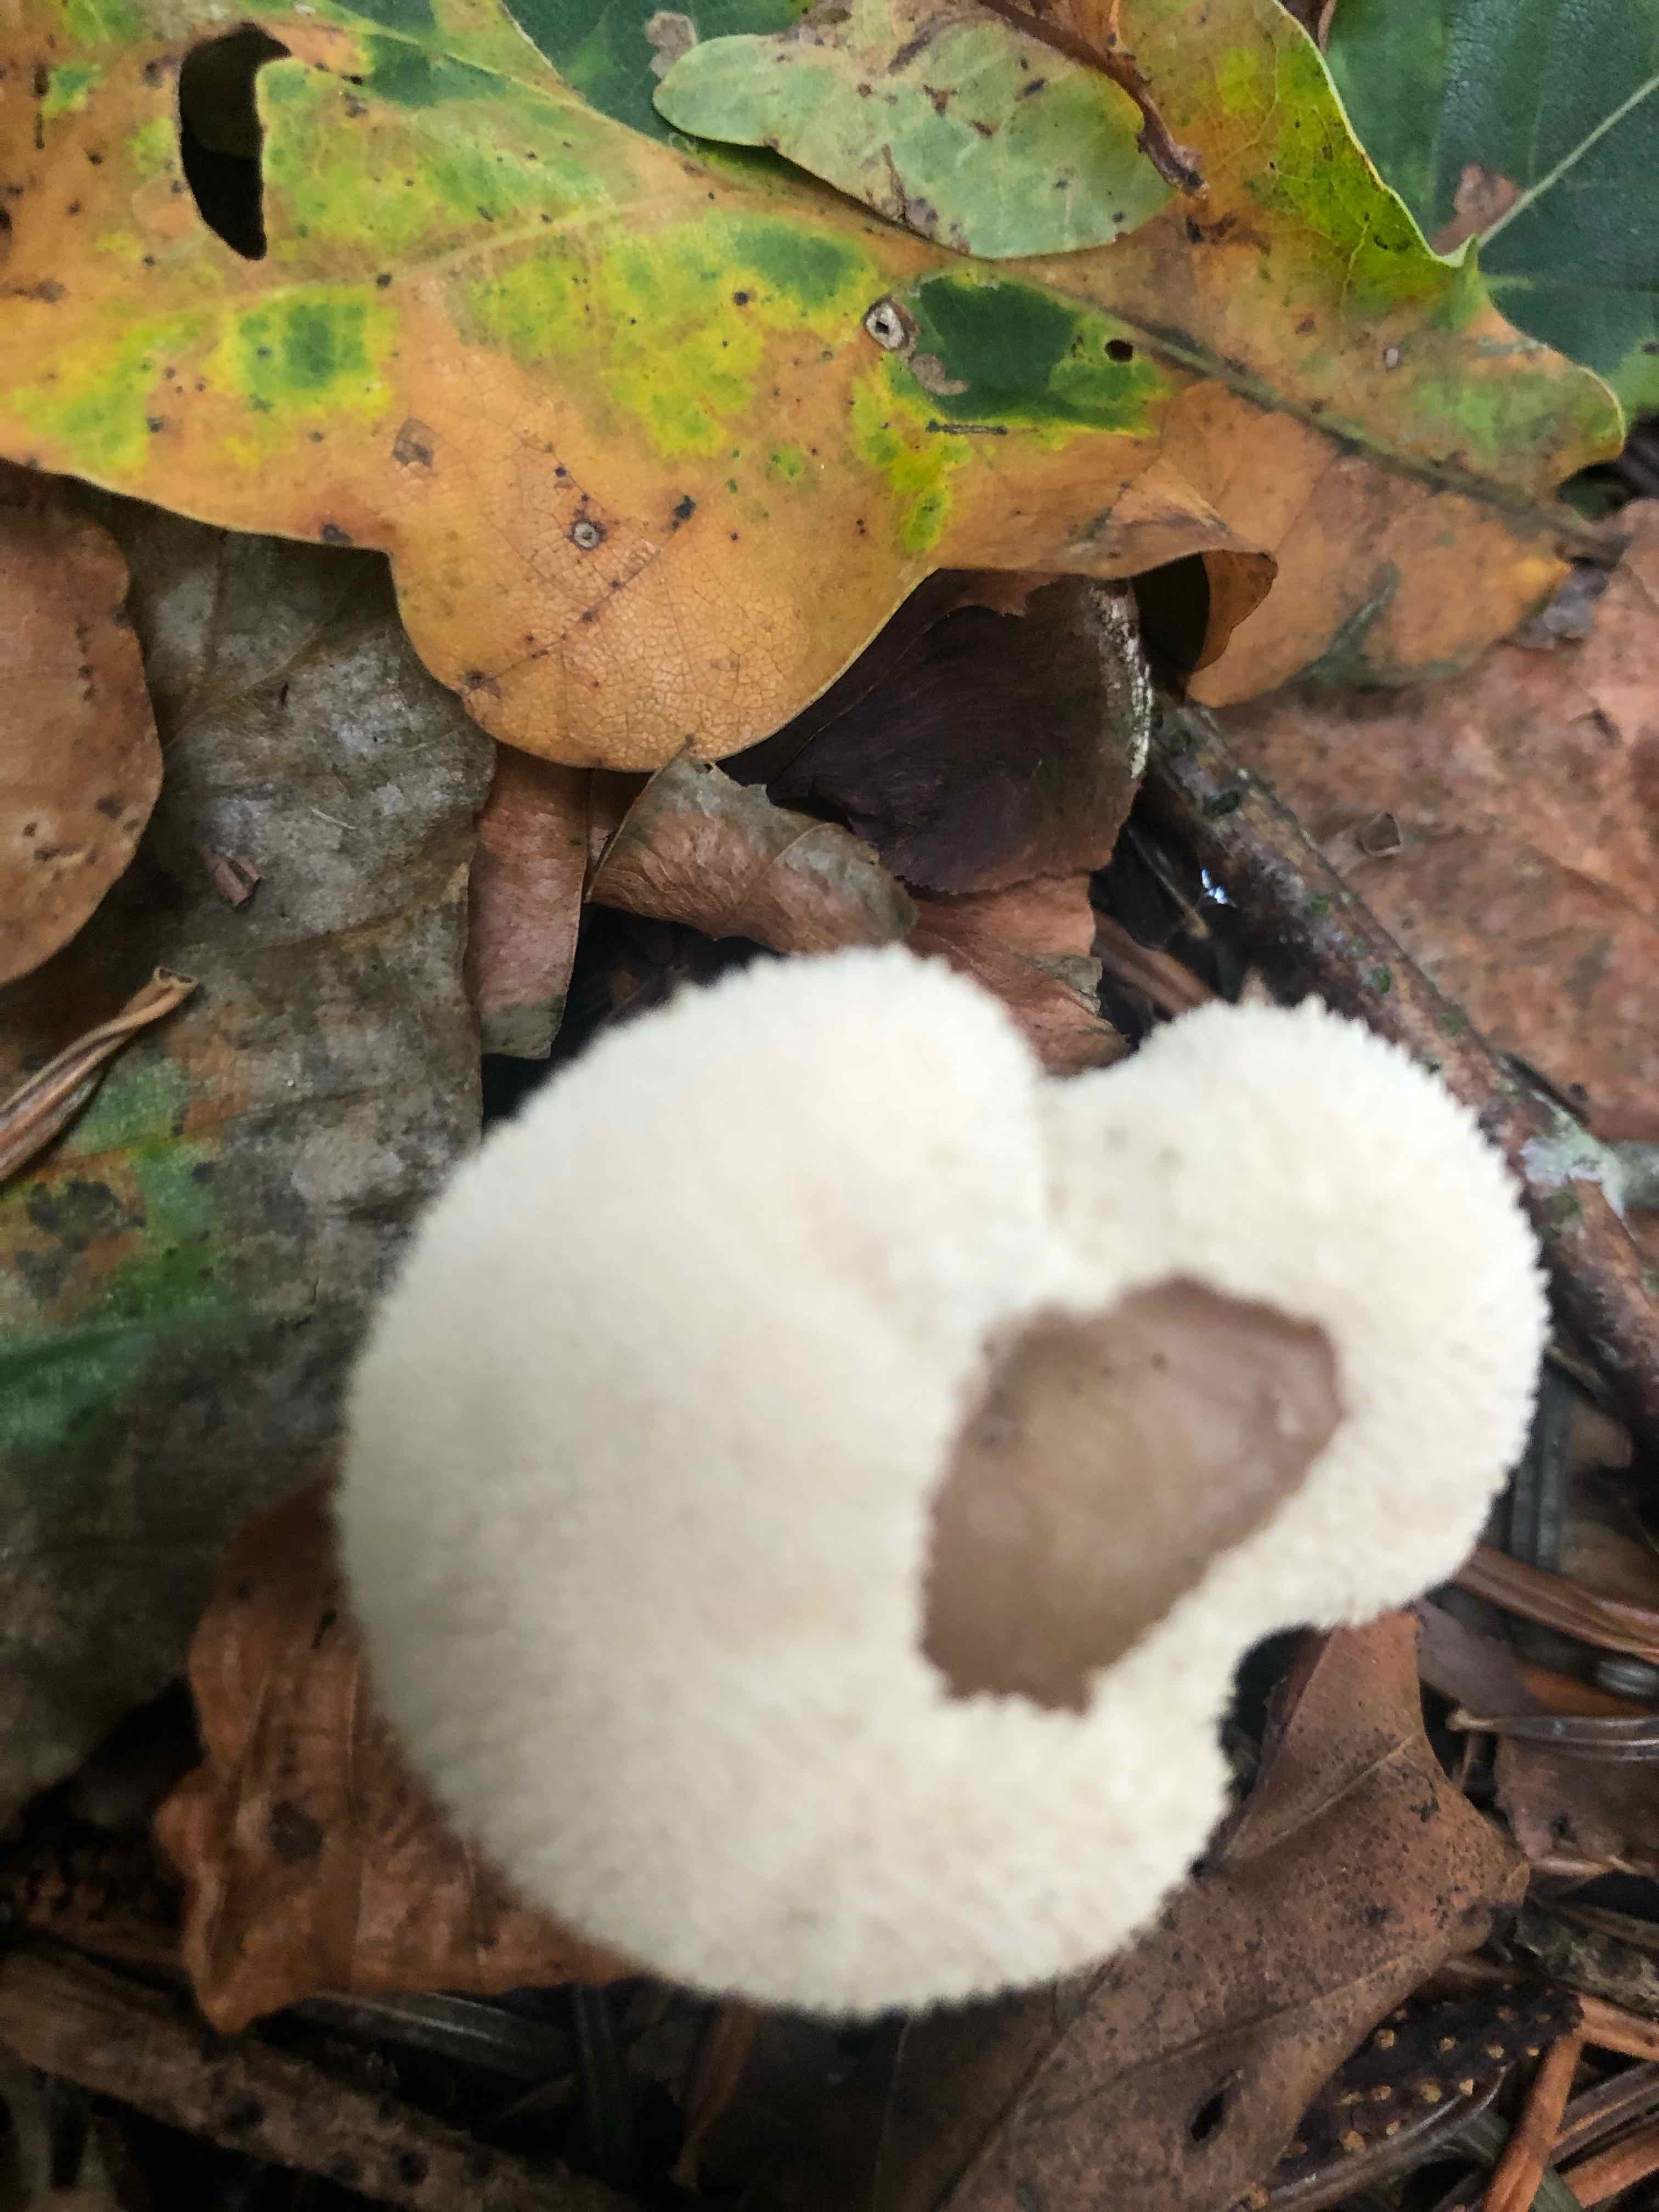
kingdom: Fungi
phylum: Basidiomycota
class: Agaricomycetes
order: Agaricales
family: Agaricaceae
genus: Lycoperdon
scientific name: Lycoperdon
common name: støvbold
